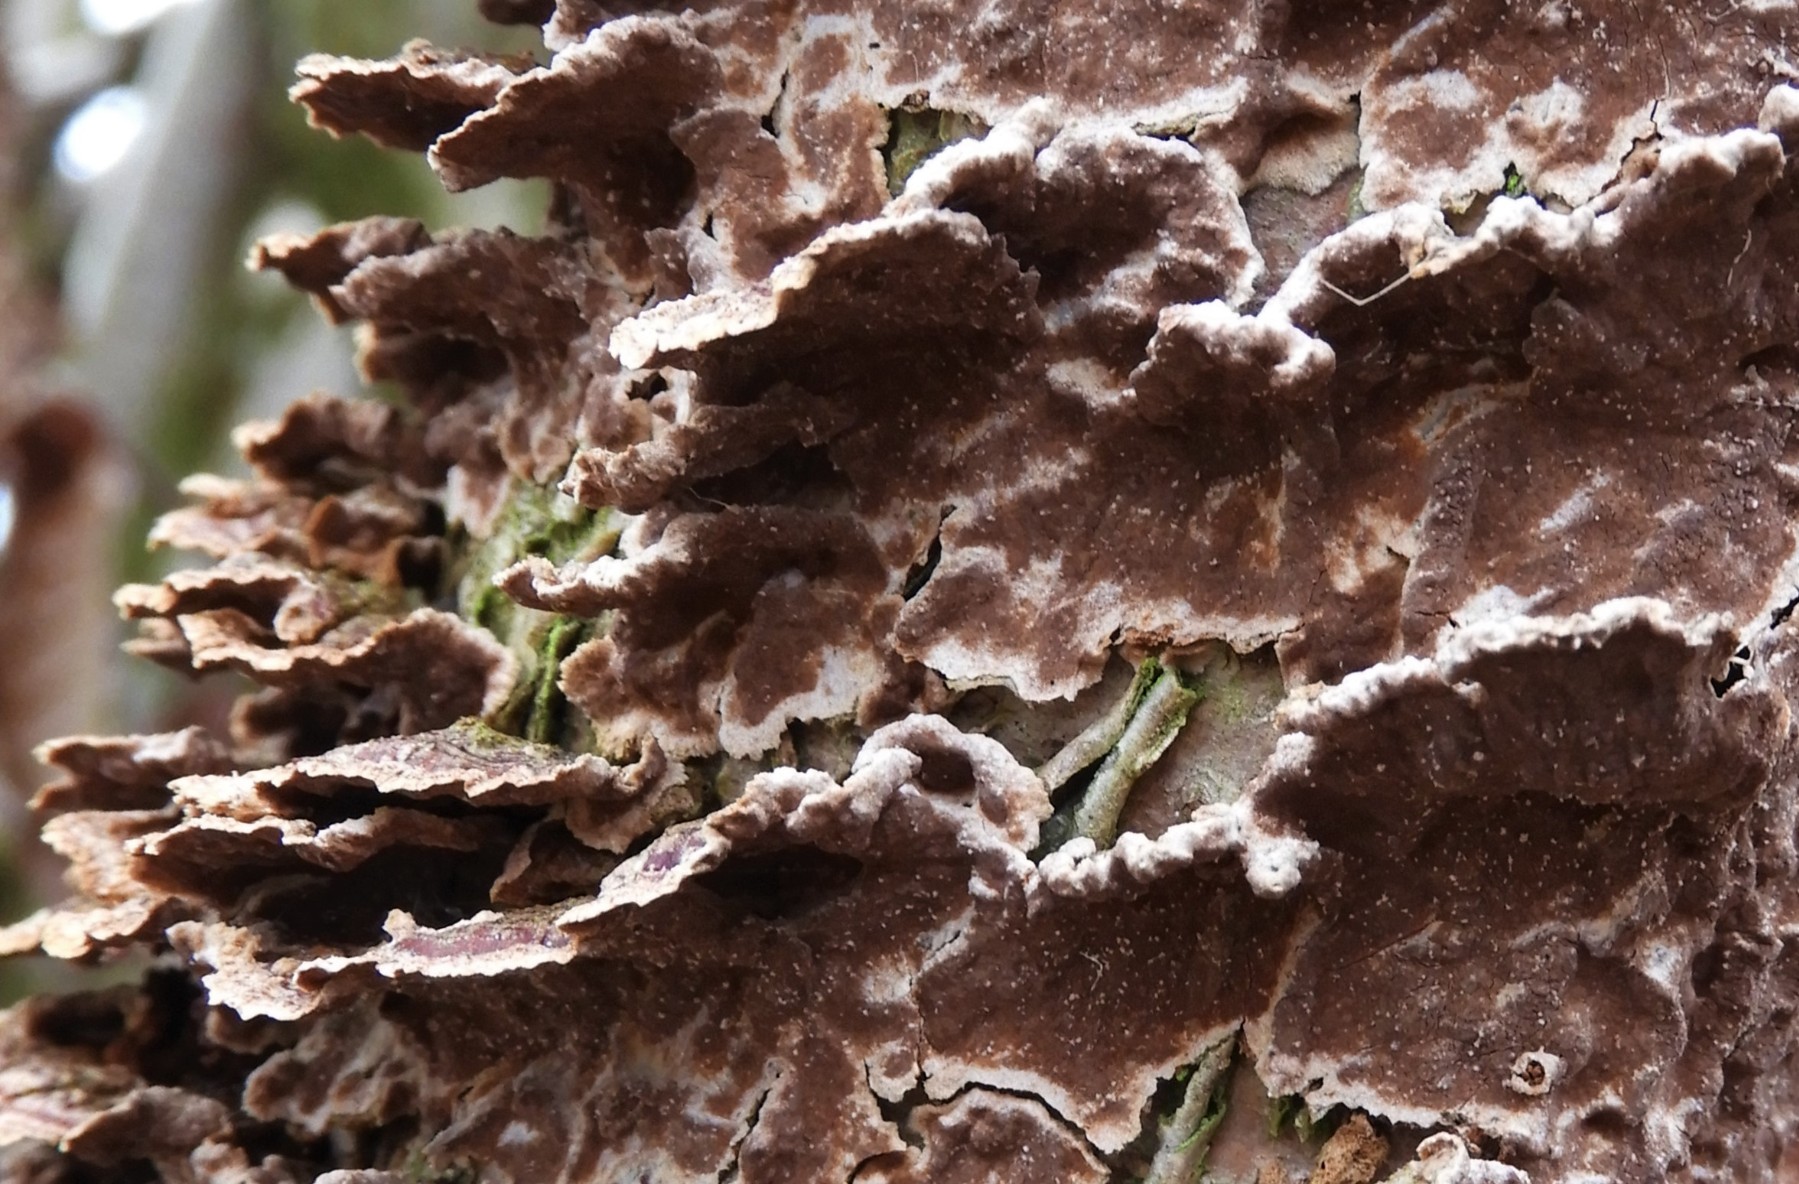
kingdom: Fungi
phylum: Basidiomycota
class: Agaricomycetes
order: Hymenochaetales
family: Hymenochaetaceae
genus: Hydnoporia
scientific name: Hydnoporia tabacina
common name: tobaksbrun ruslædersvamp
